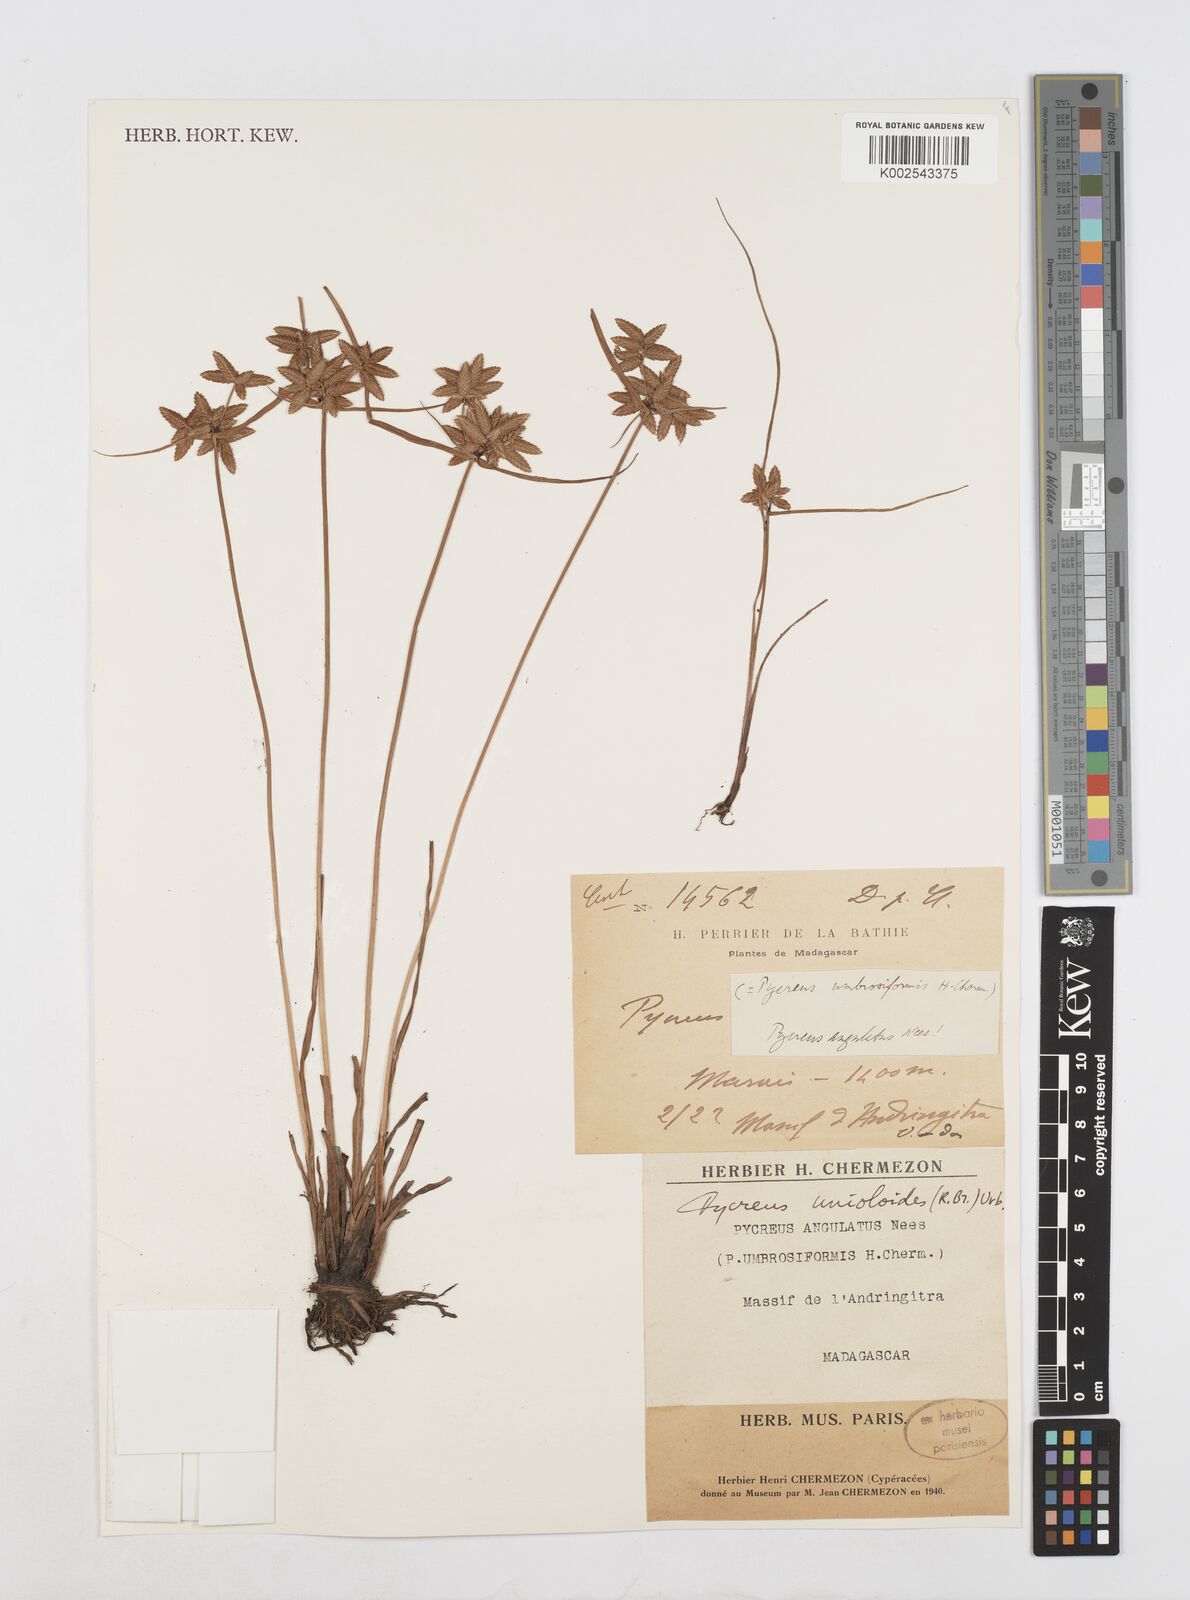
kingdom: Plantae
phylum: Tracheophyta
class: Liliopsida
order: Poales
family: Cyperaceae
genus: Cyperus
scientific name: Cyperus unioloides
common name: Uniola flatsedge
